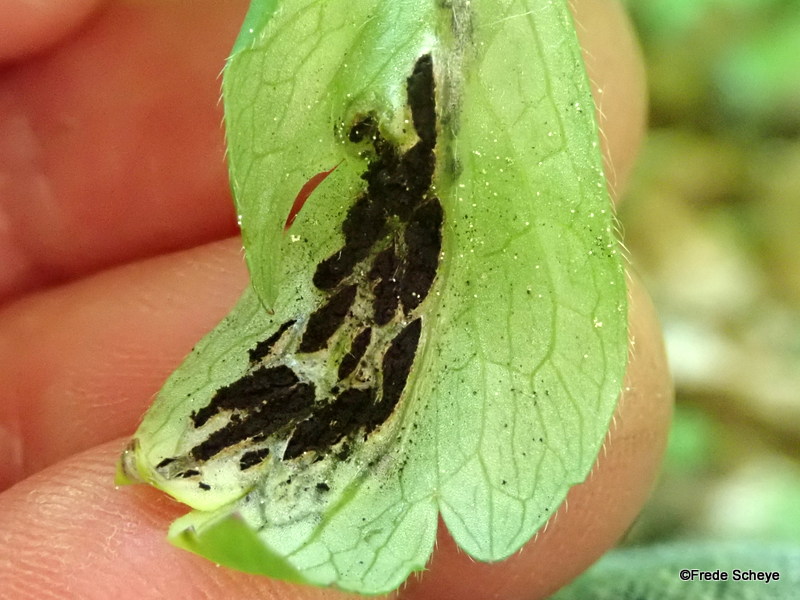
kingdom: Fungi
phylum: Basidiomycota
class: Ustilaginomycetes
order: Urocystidales
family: Urocystidaceae
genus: Urocystis
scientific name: Urocystis anemones
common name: anemone-brand
